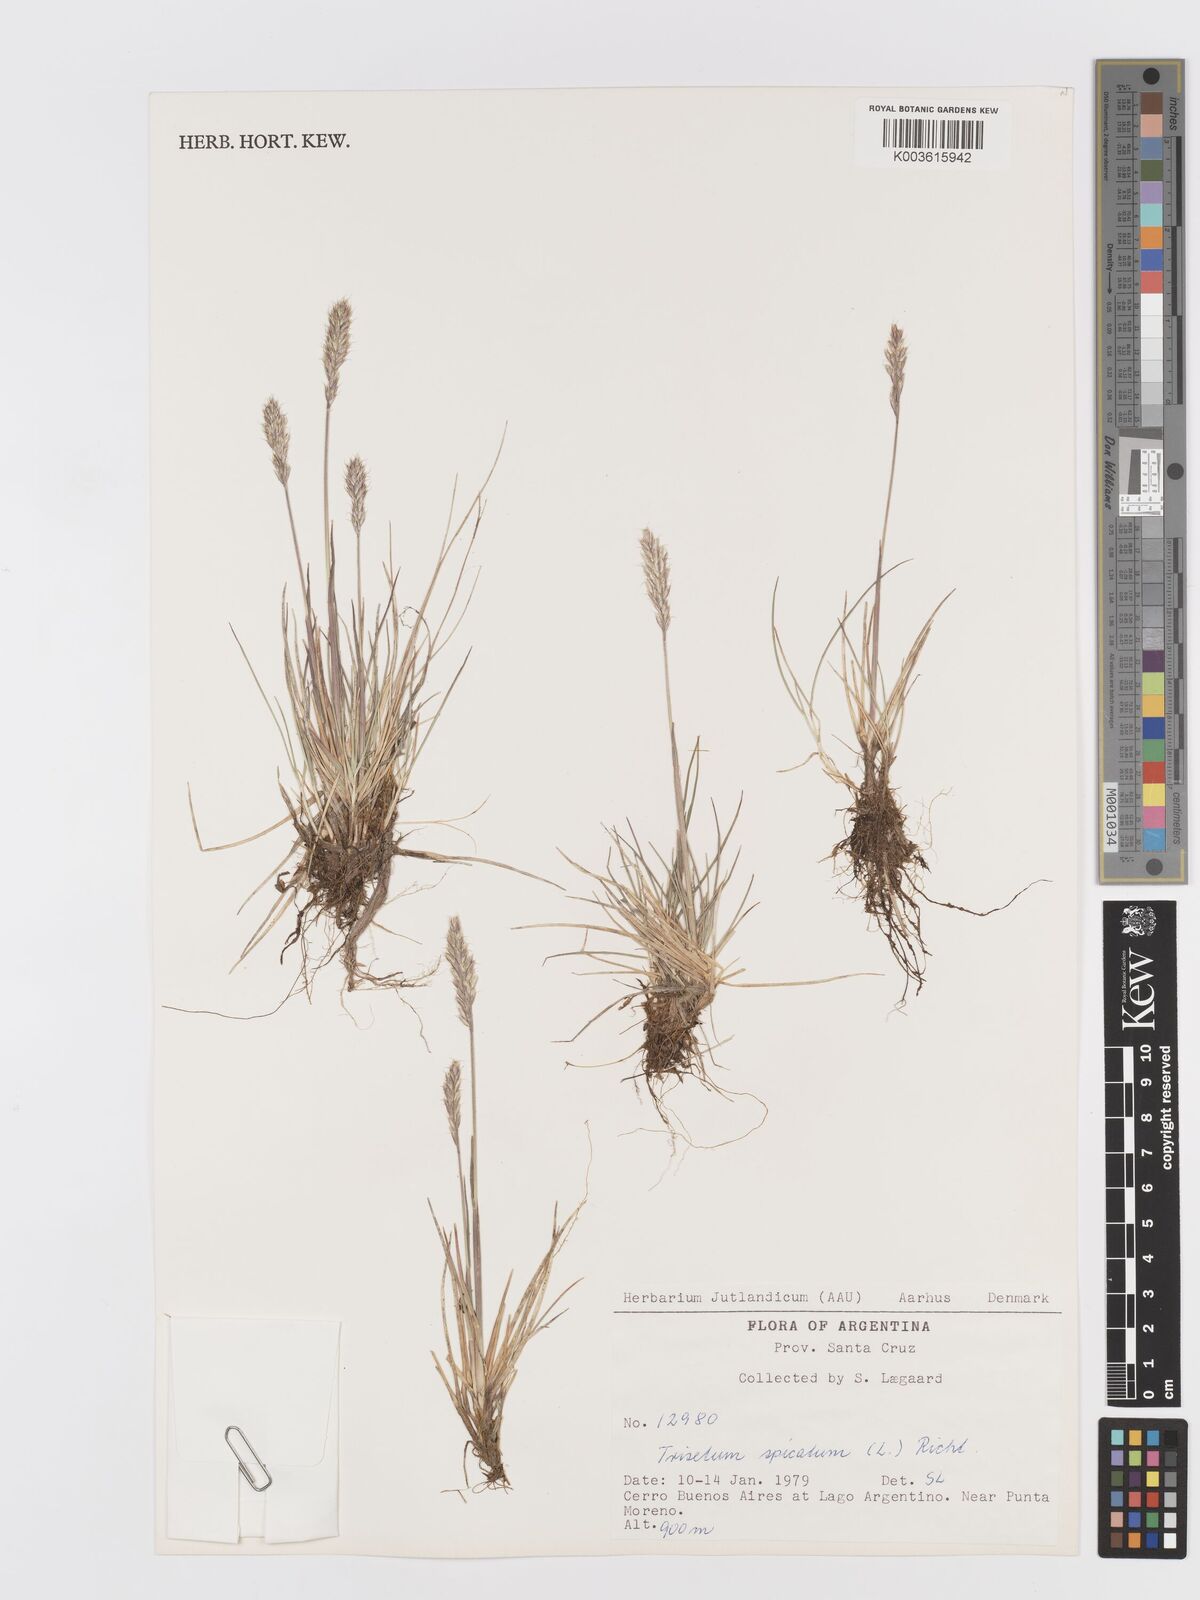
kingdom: Plantae
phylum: Tracheophyta
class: Liliopsida
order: Poales
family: Poaceae
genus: Koeleria
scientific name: Koeleria spicata
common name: Mountain trisetum
